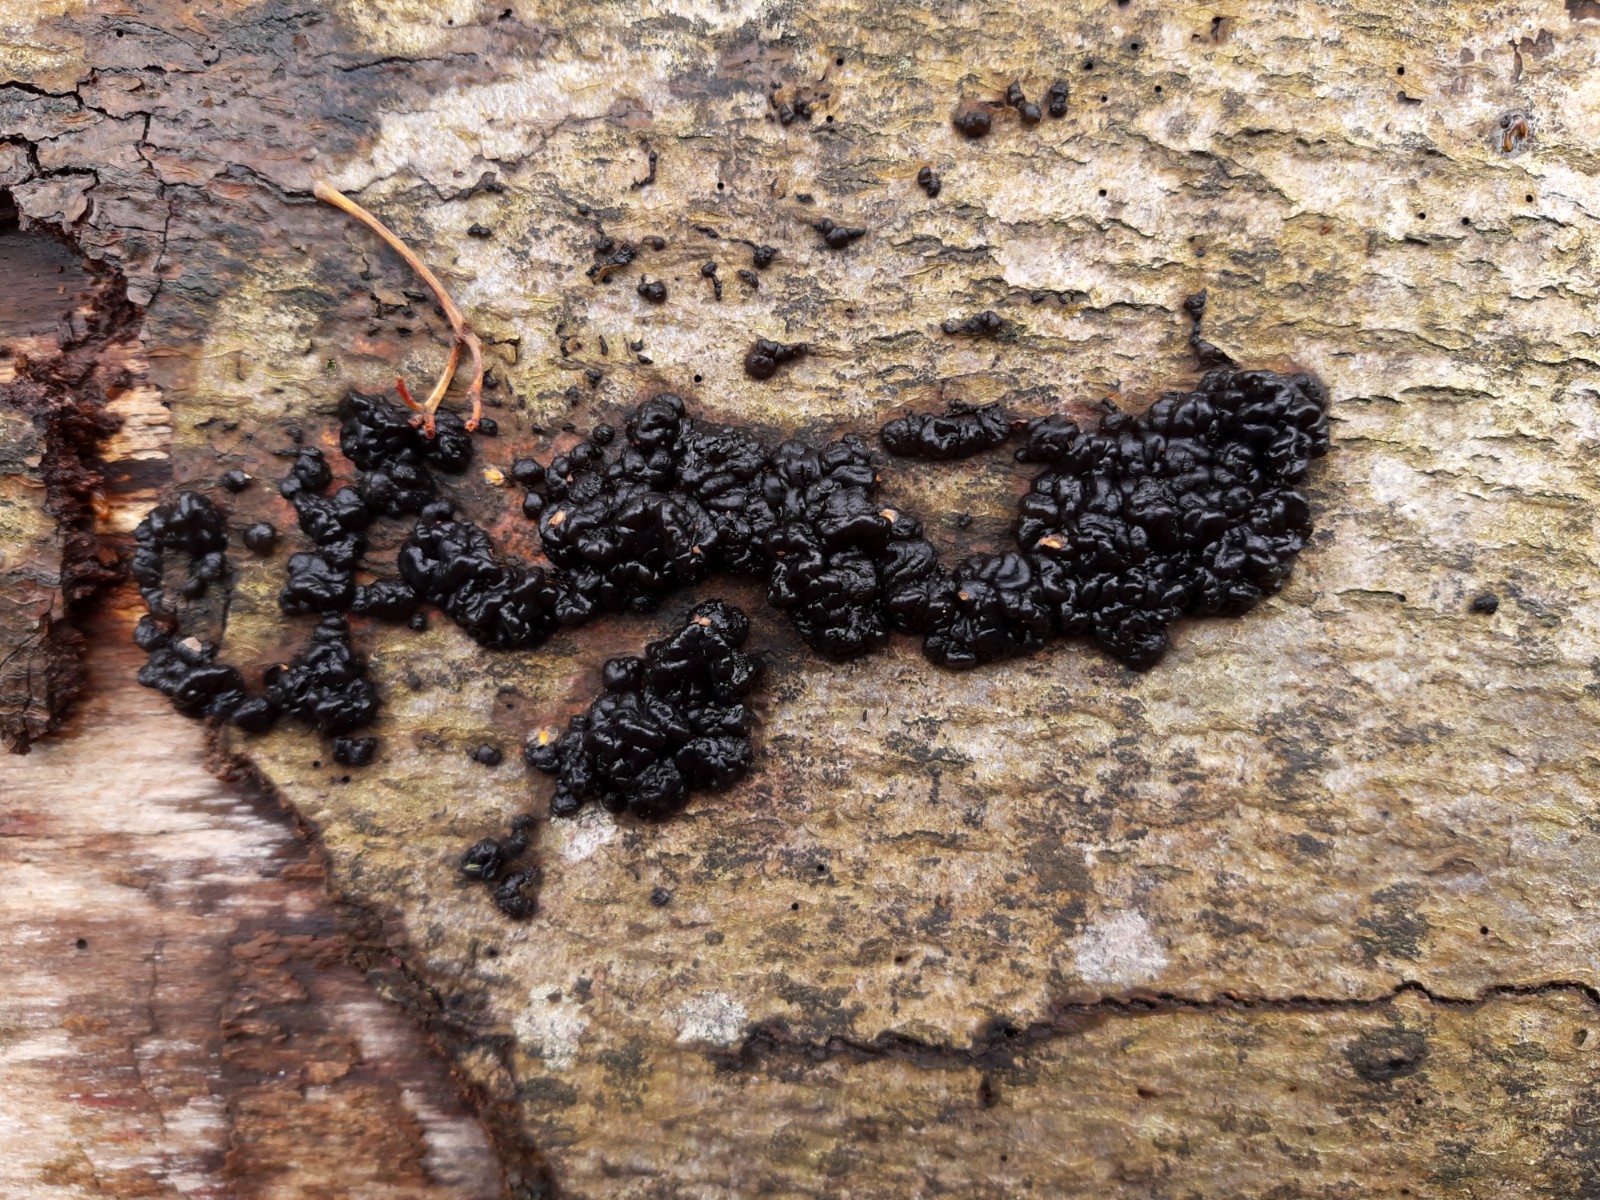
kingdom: Fungi
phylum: Basidiomycota
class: Agaricomycetes
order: Auriculariales
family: Auriculariaceae
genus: Exidia
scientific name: Exidia nigricans
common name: almindelig bævretop
